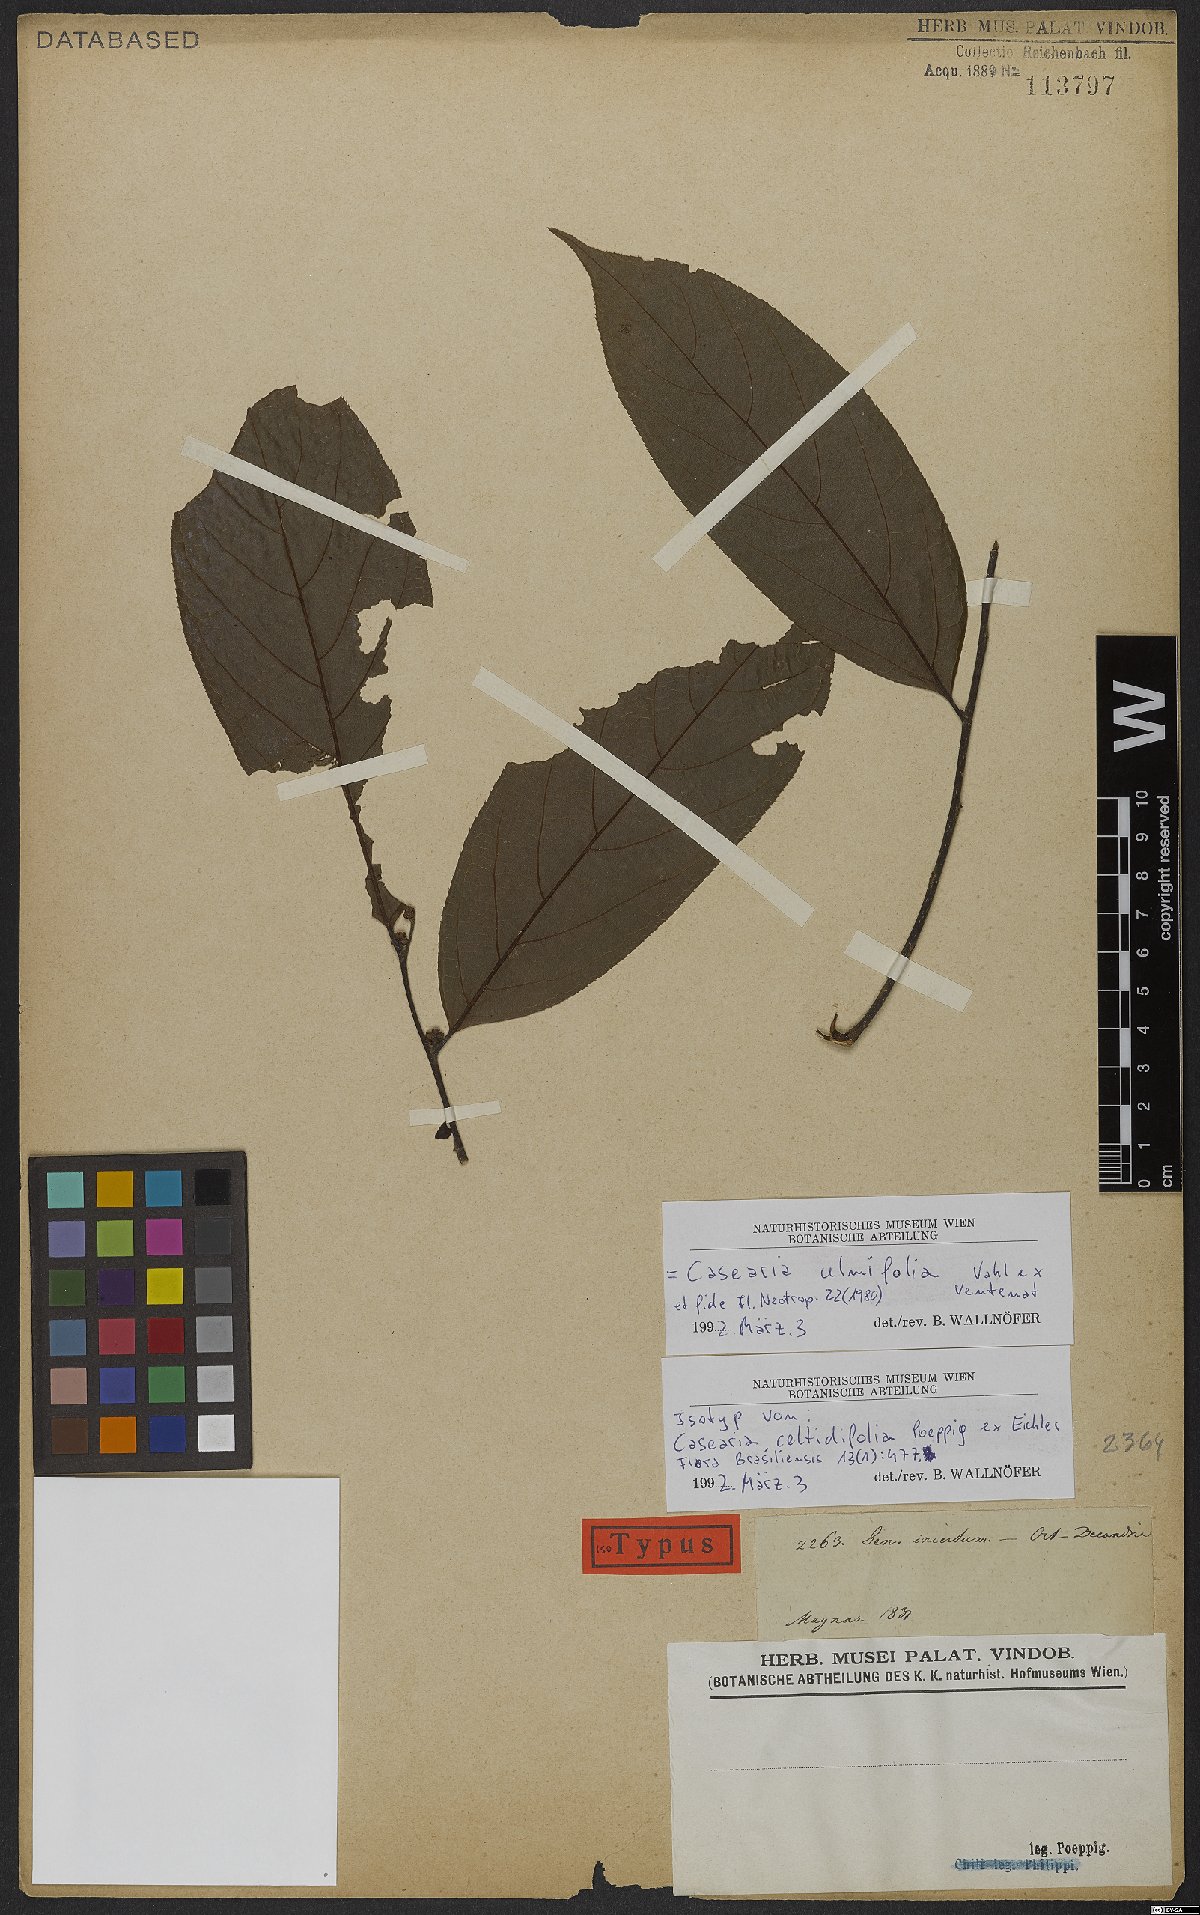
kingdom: Plantae
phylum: Tracheophyta
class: Magnoliopsida
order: Malpighiales
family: Salicaceae
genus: Casearia
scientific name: Casearia ulmifolia
